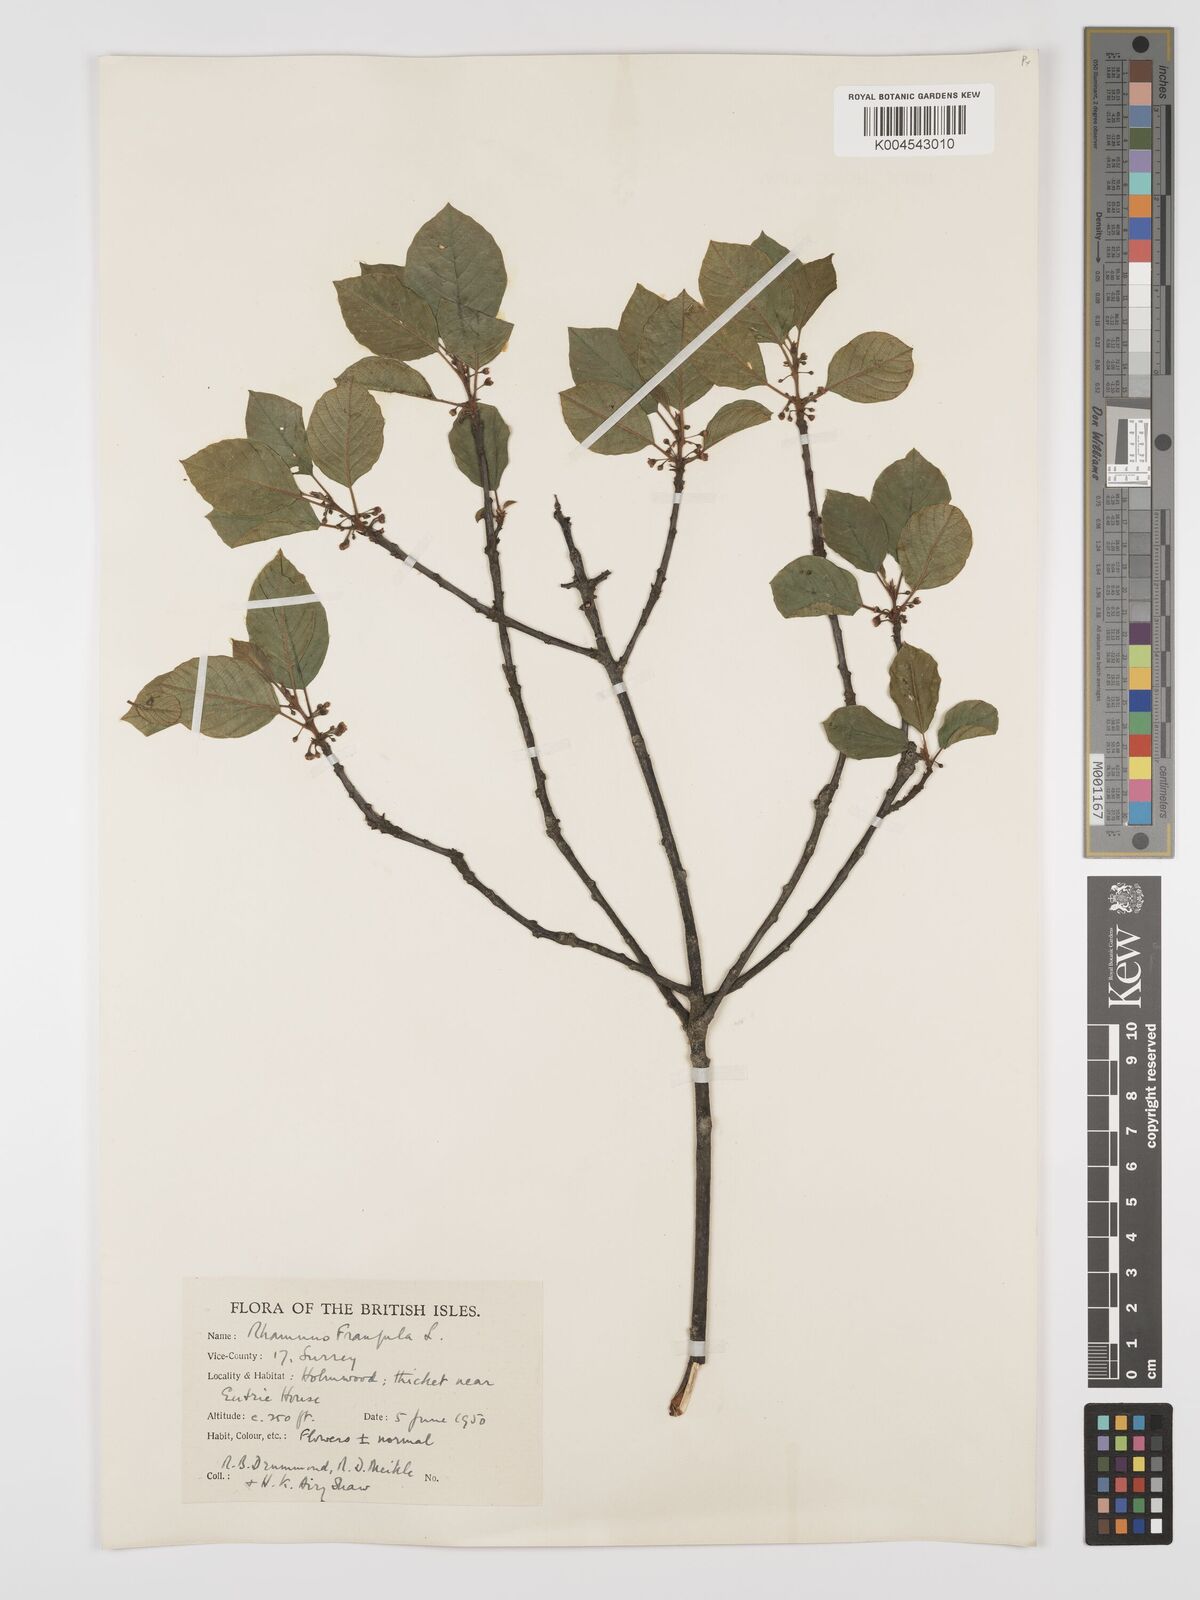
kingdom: Plantae
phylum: Tracheophyta
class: Magnoliopsida
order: Rosales
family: Rhamnaceae
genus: Frangula
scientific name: Frangula alnus
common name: Alder buckthorn
